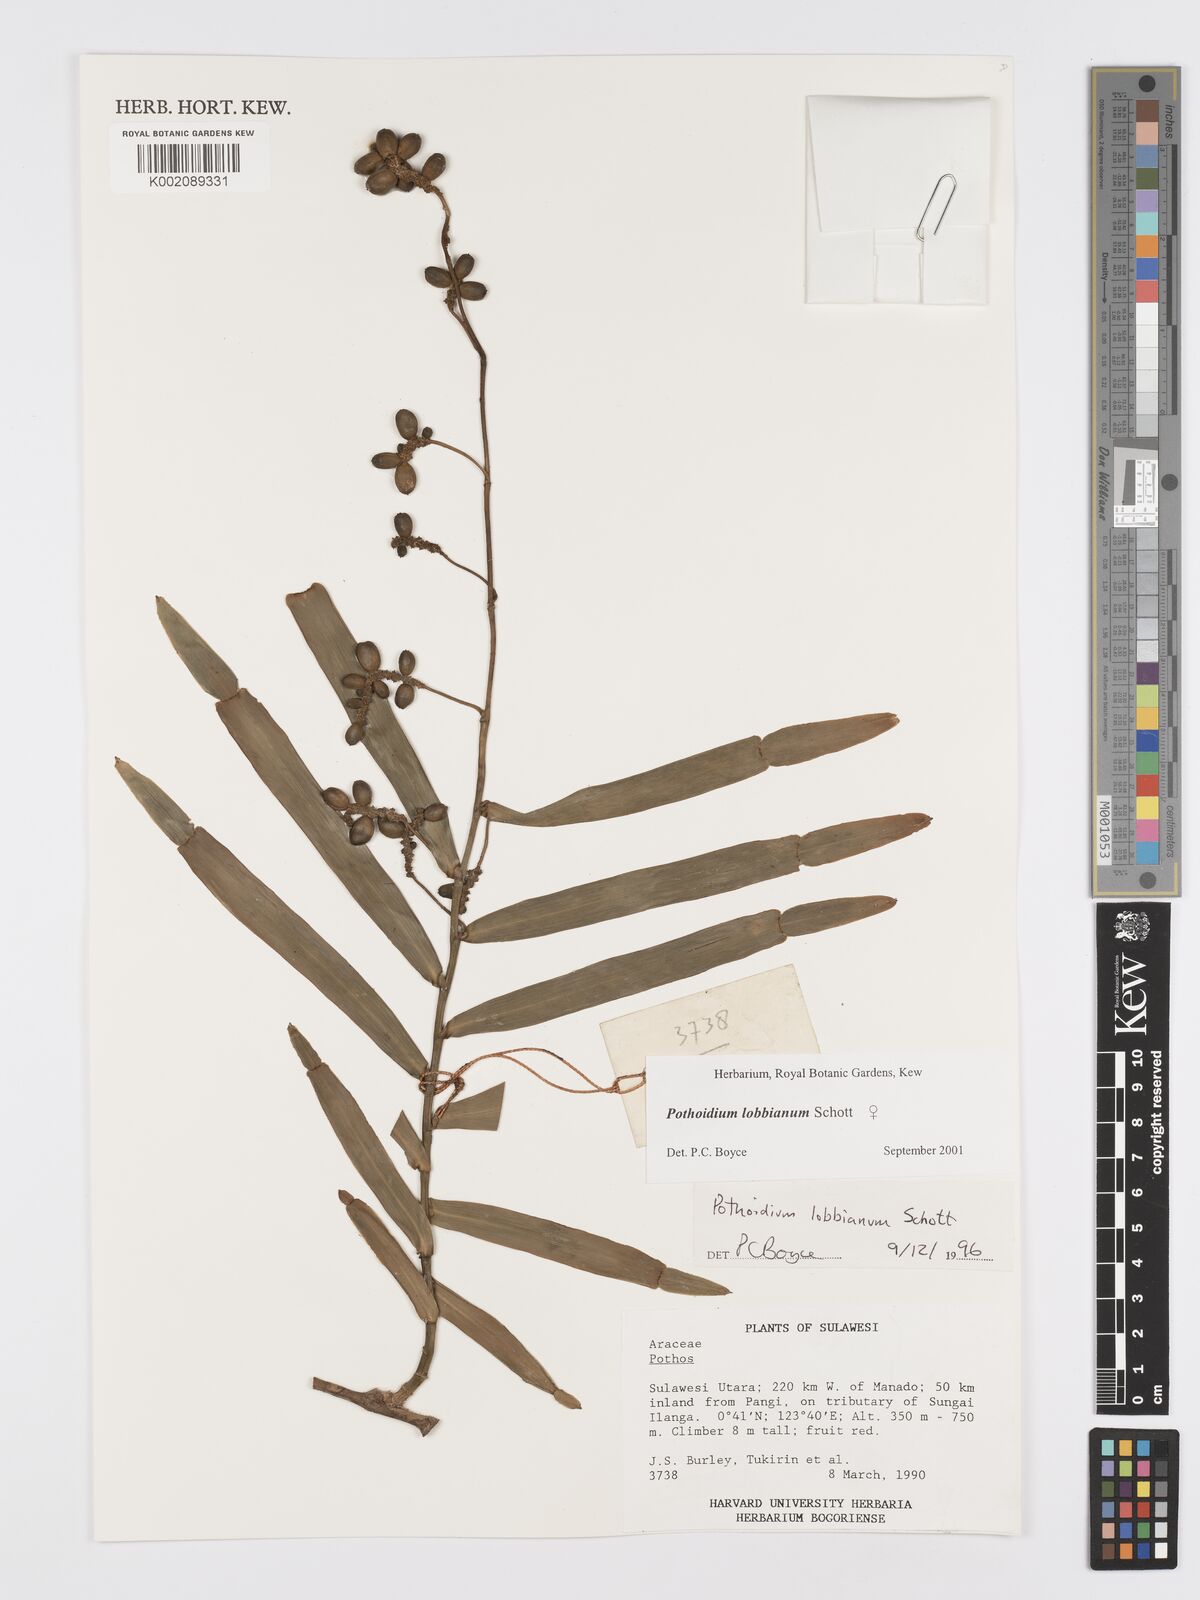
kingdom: Plantae
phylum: Tracheophyta
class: Liliopsida
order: Alismatales
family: Araceae
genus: Pothoidium
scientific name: Pothoidium lobbianum
